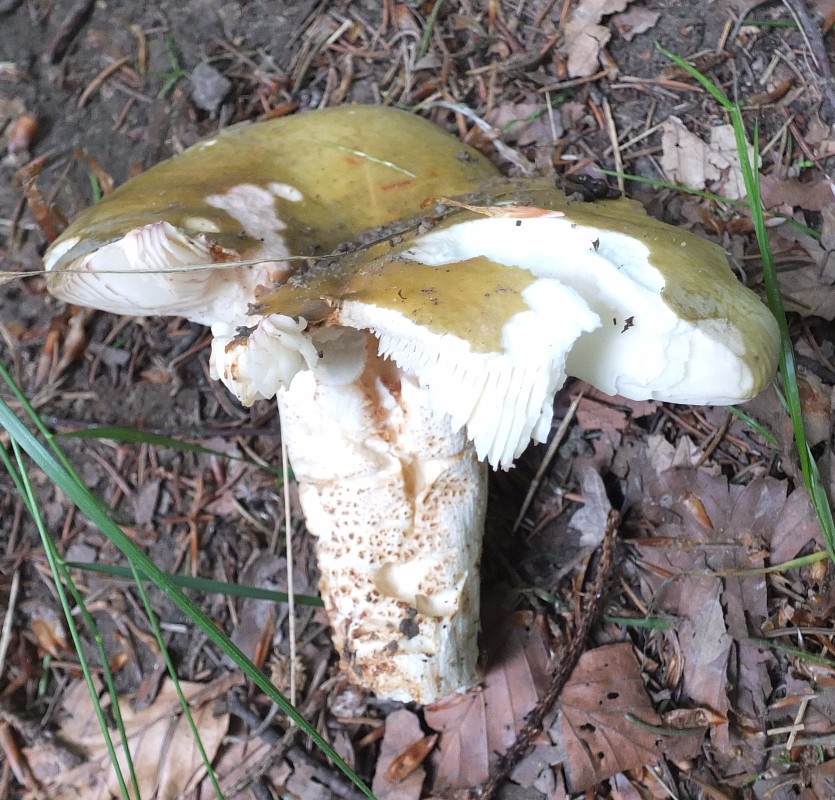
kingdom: Fungi
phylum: Basidiomycota
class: Agaricomycetes
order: Russulales
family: Russulaceae
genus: Russula
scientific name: Russula
